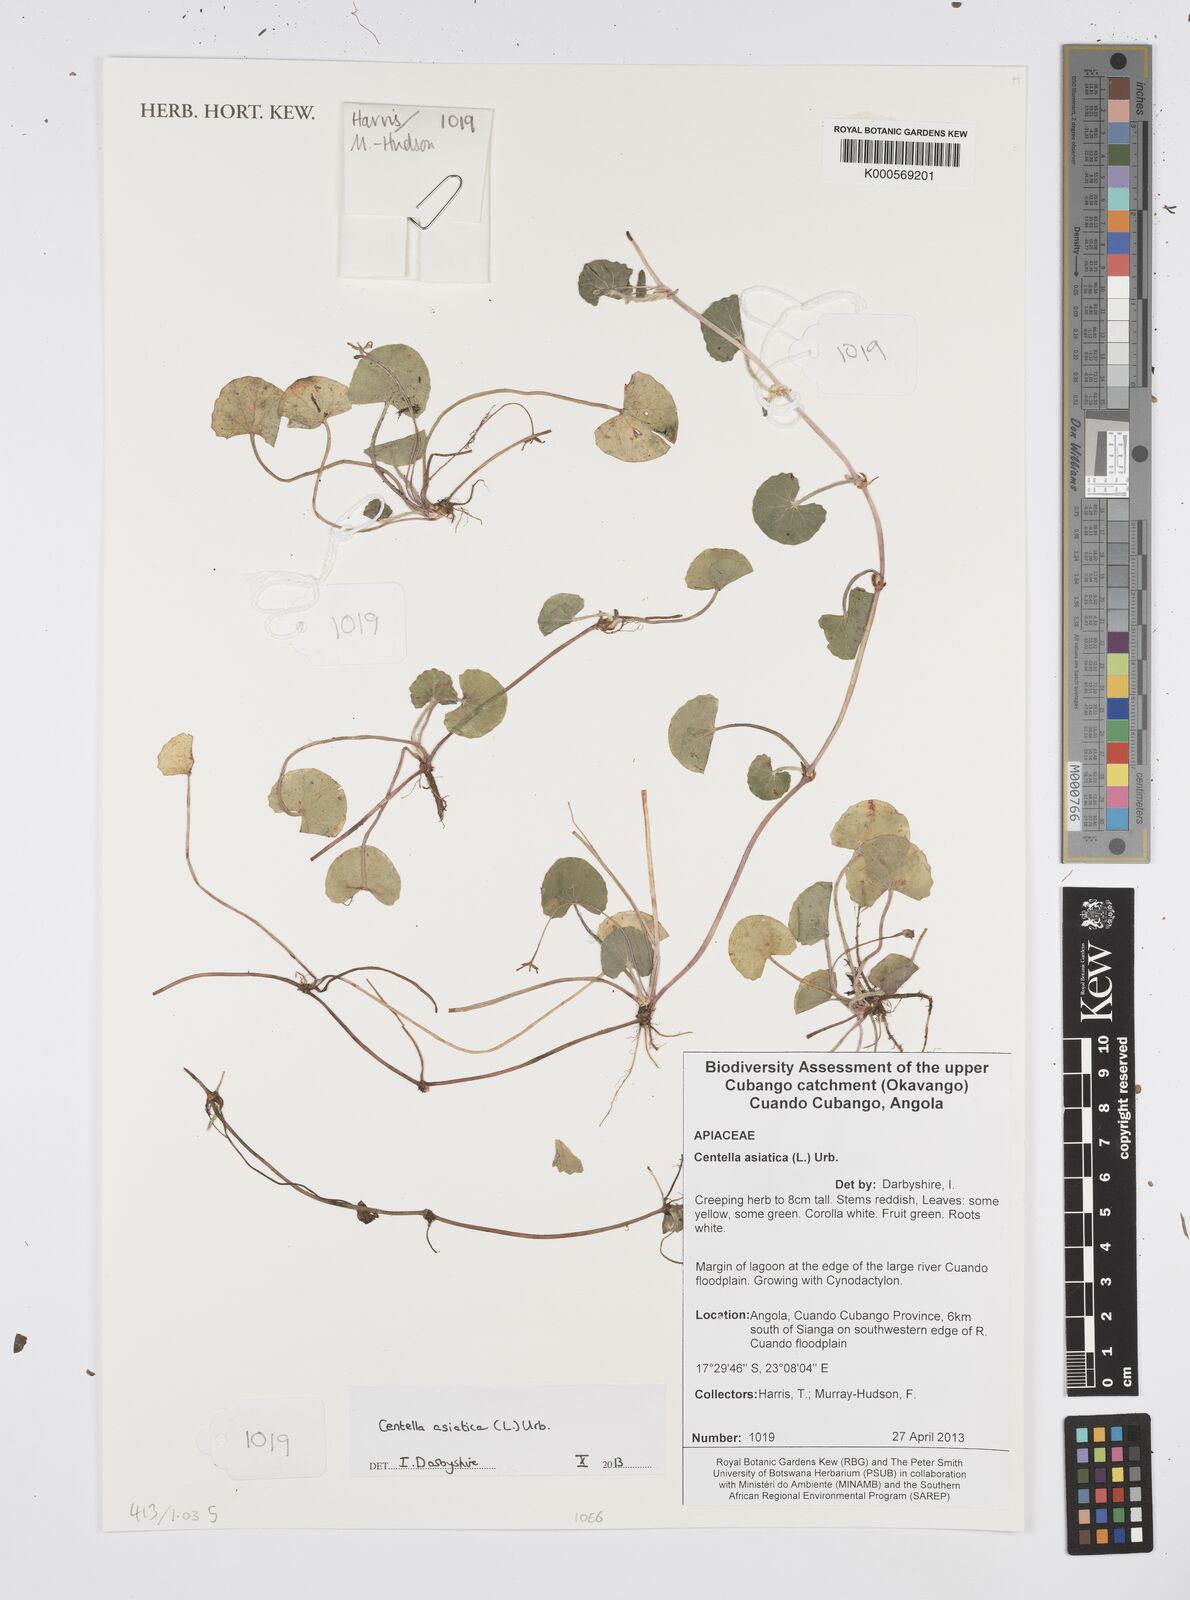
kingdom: Plantae
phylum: Tracheophyta
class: Magnoliopsida
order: Apiales
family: Apiaceae
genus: Centella
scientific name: Centella asiatica
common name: Spadeleaf
